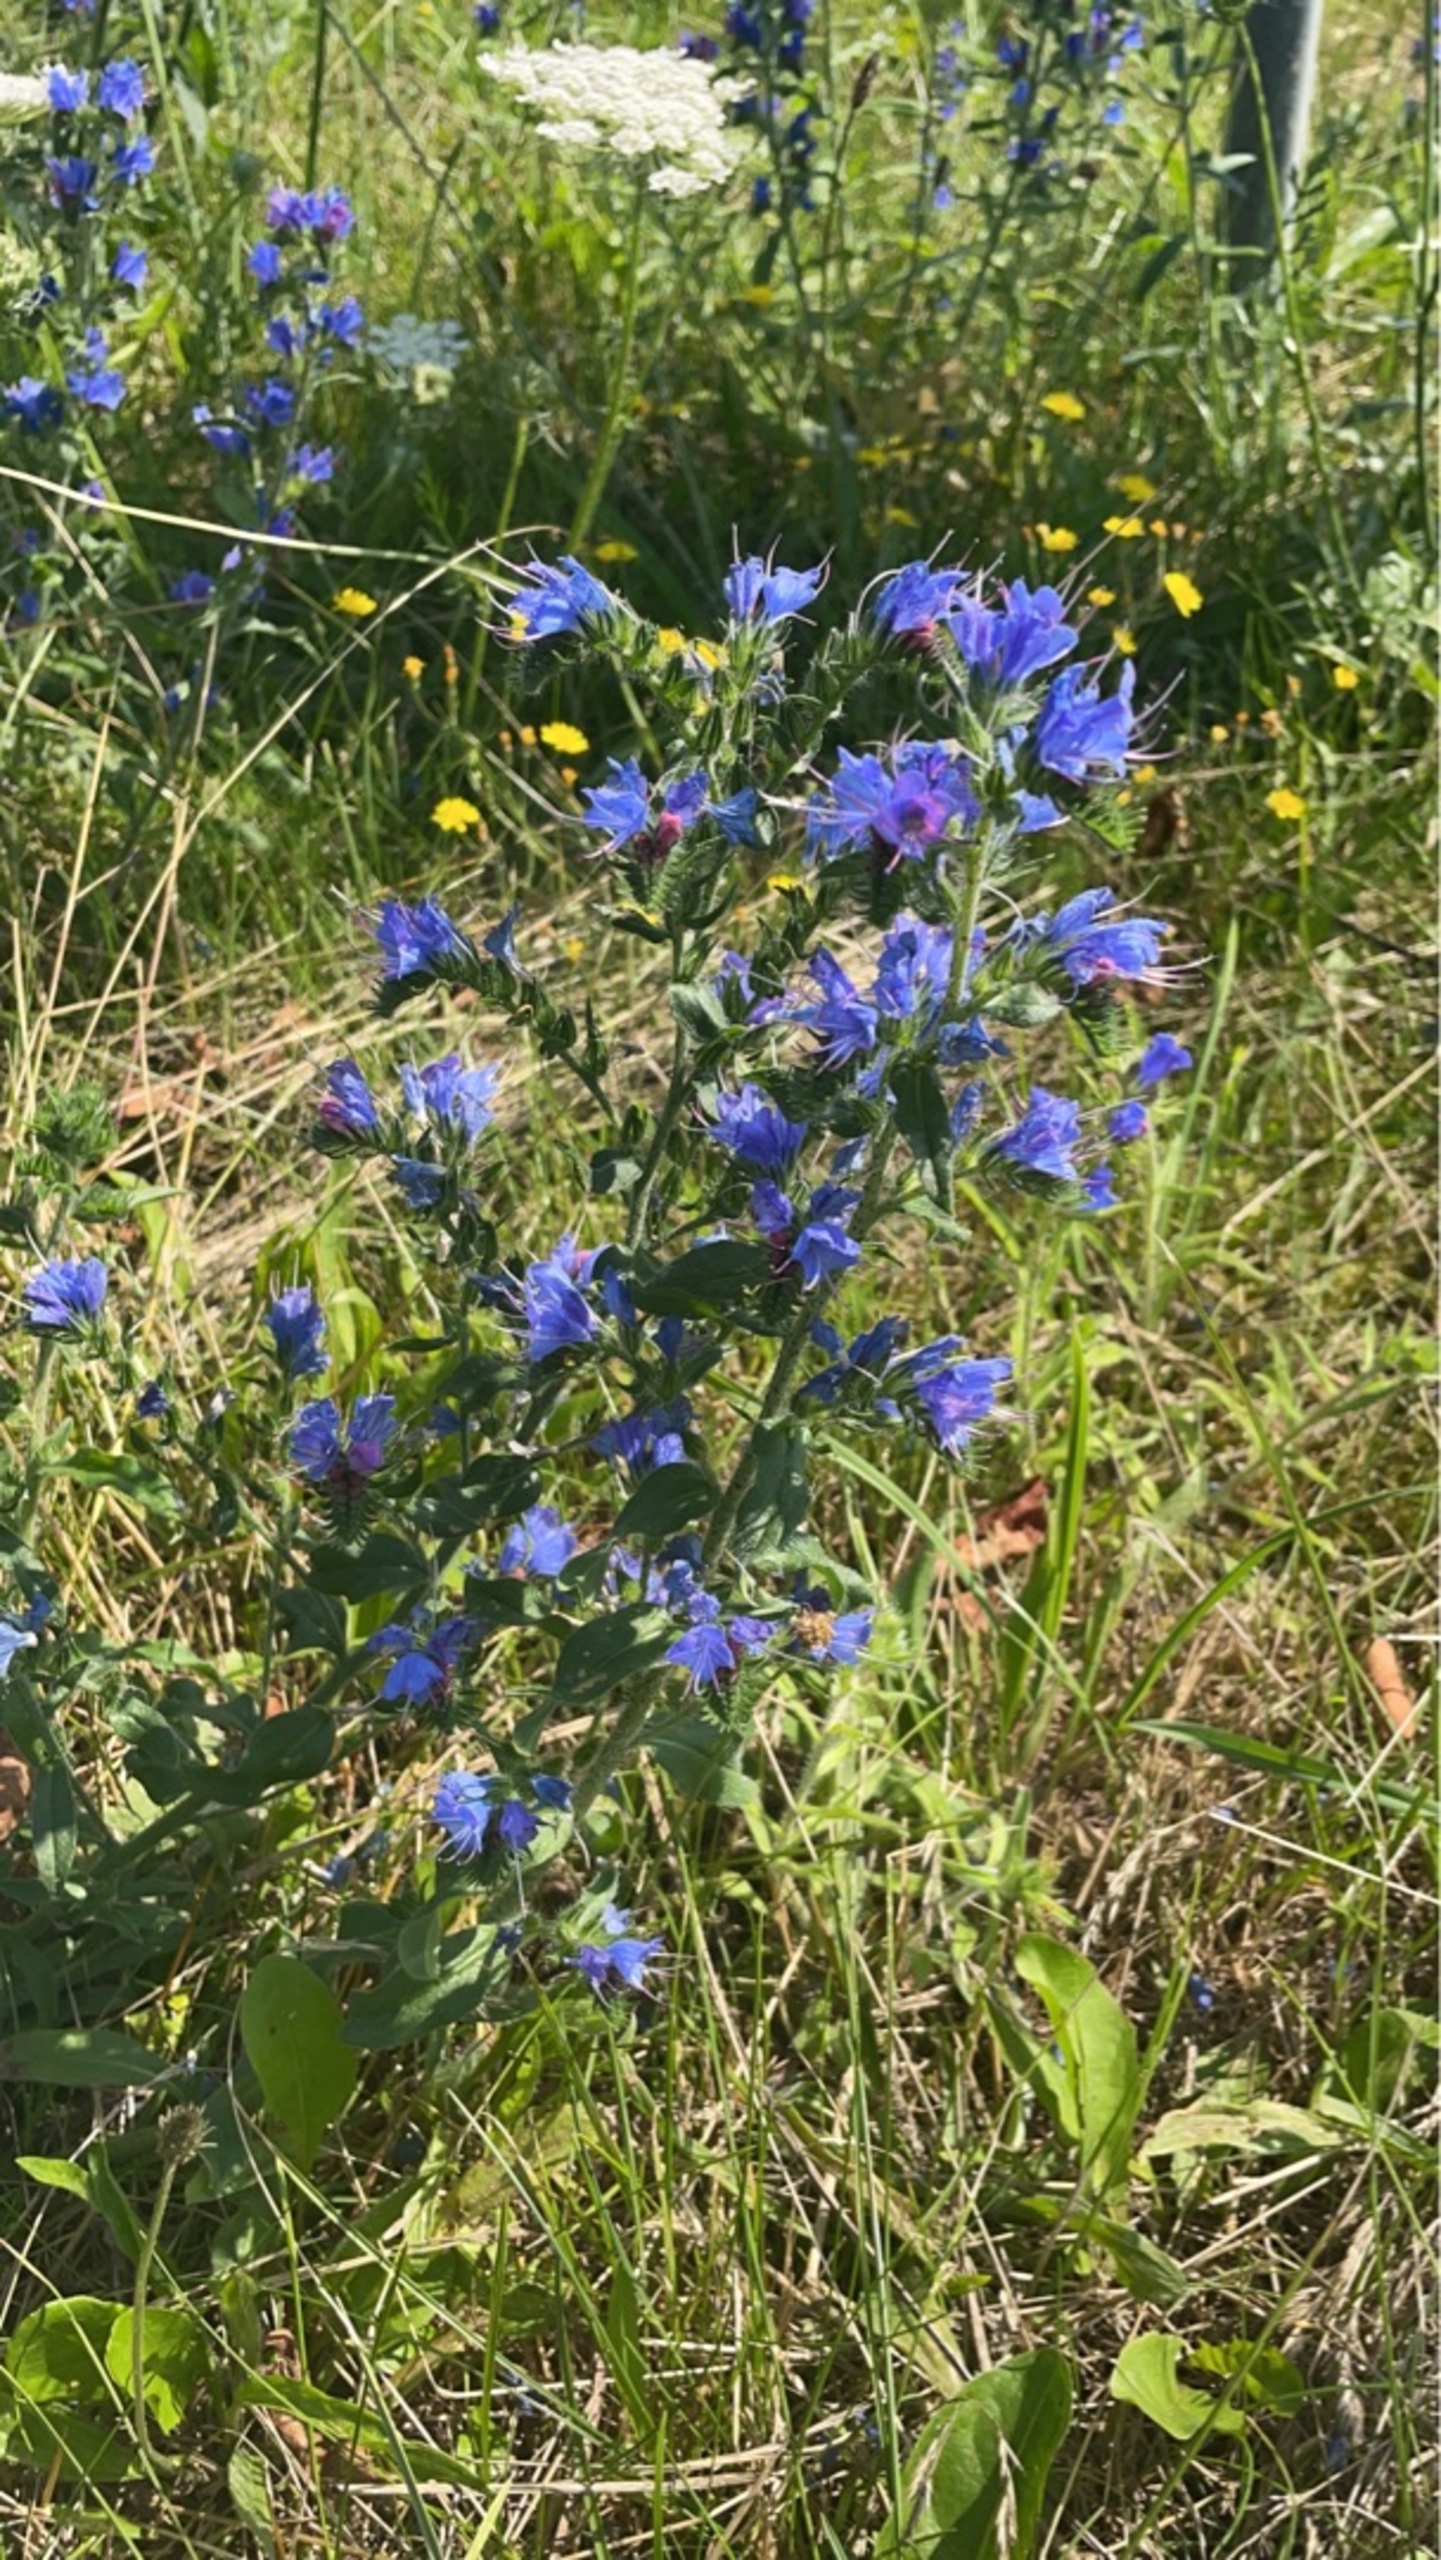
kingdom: Plantae
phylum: Tracheophyta
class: Magnoliopsida
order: Boraginales
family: Boraginaceae
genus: Echium
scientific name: Echium vulgare
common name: Slangehoved
